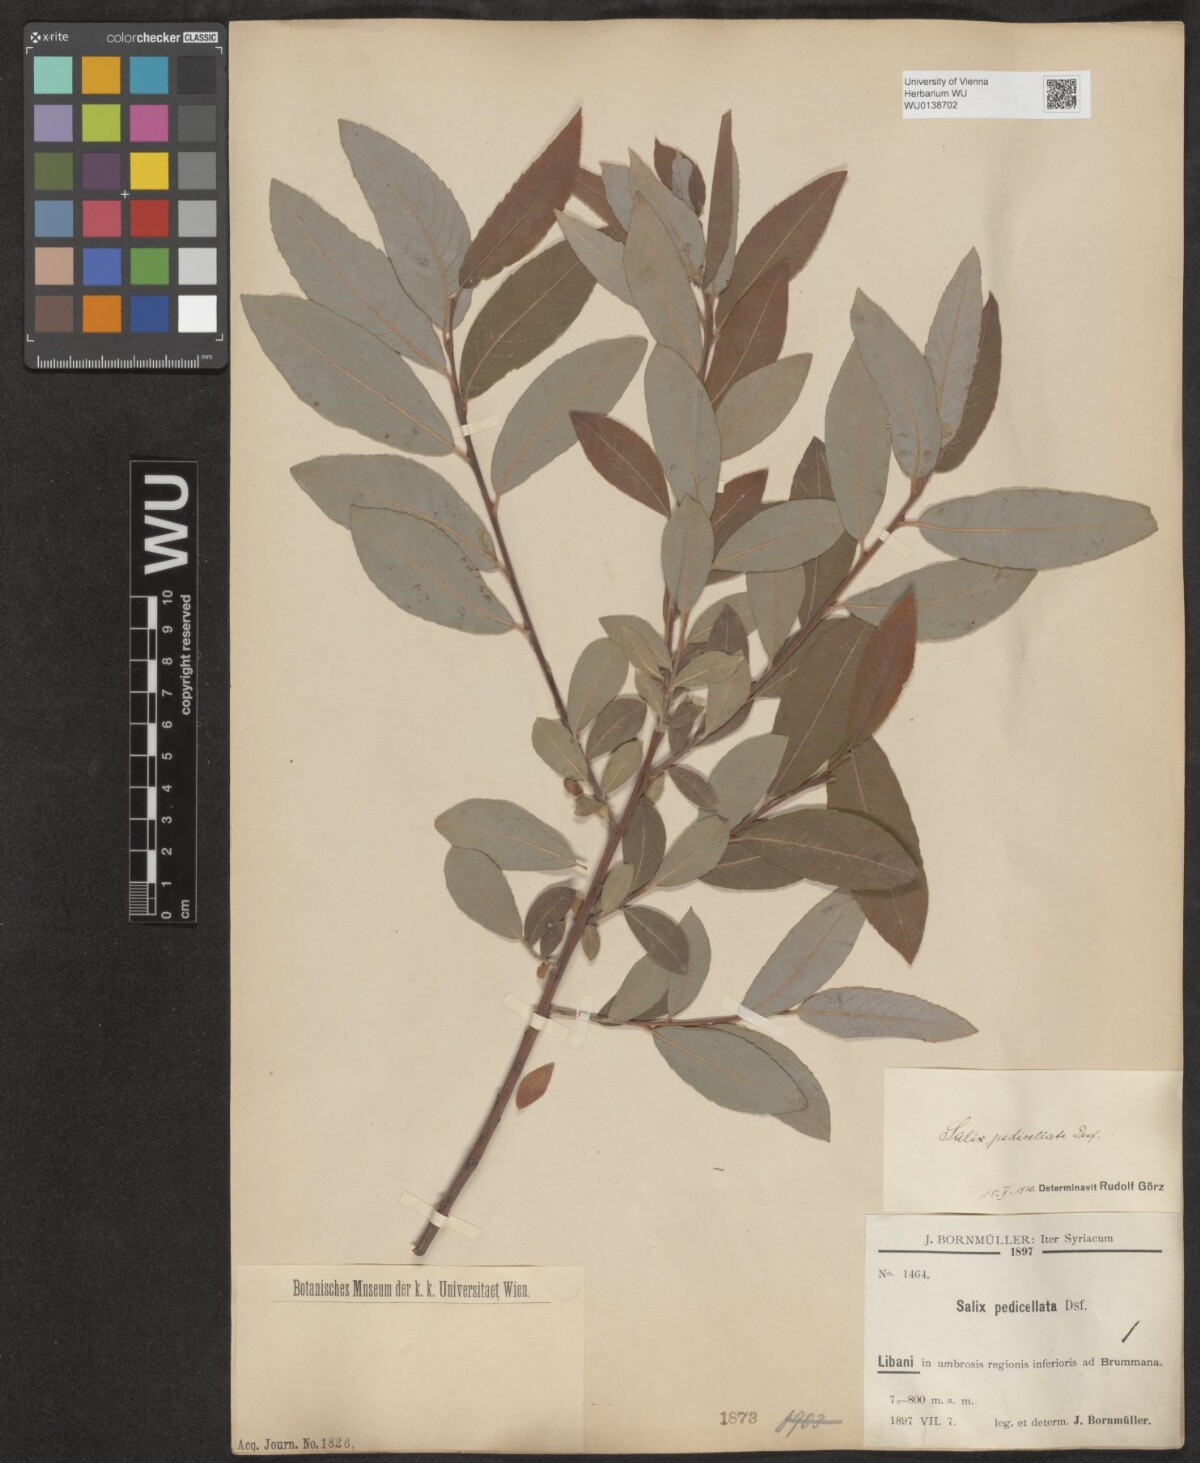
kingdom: Plantae
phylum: Tracheophyta
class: Magnoliopsida
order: Malpighiales
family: Salicaceae
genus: Salix
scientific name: Salix pedicellata
